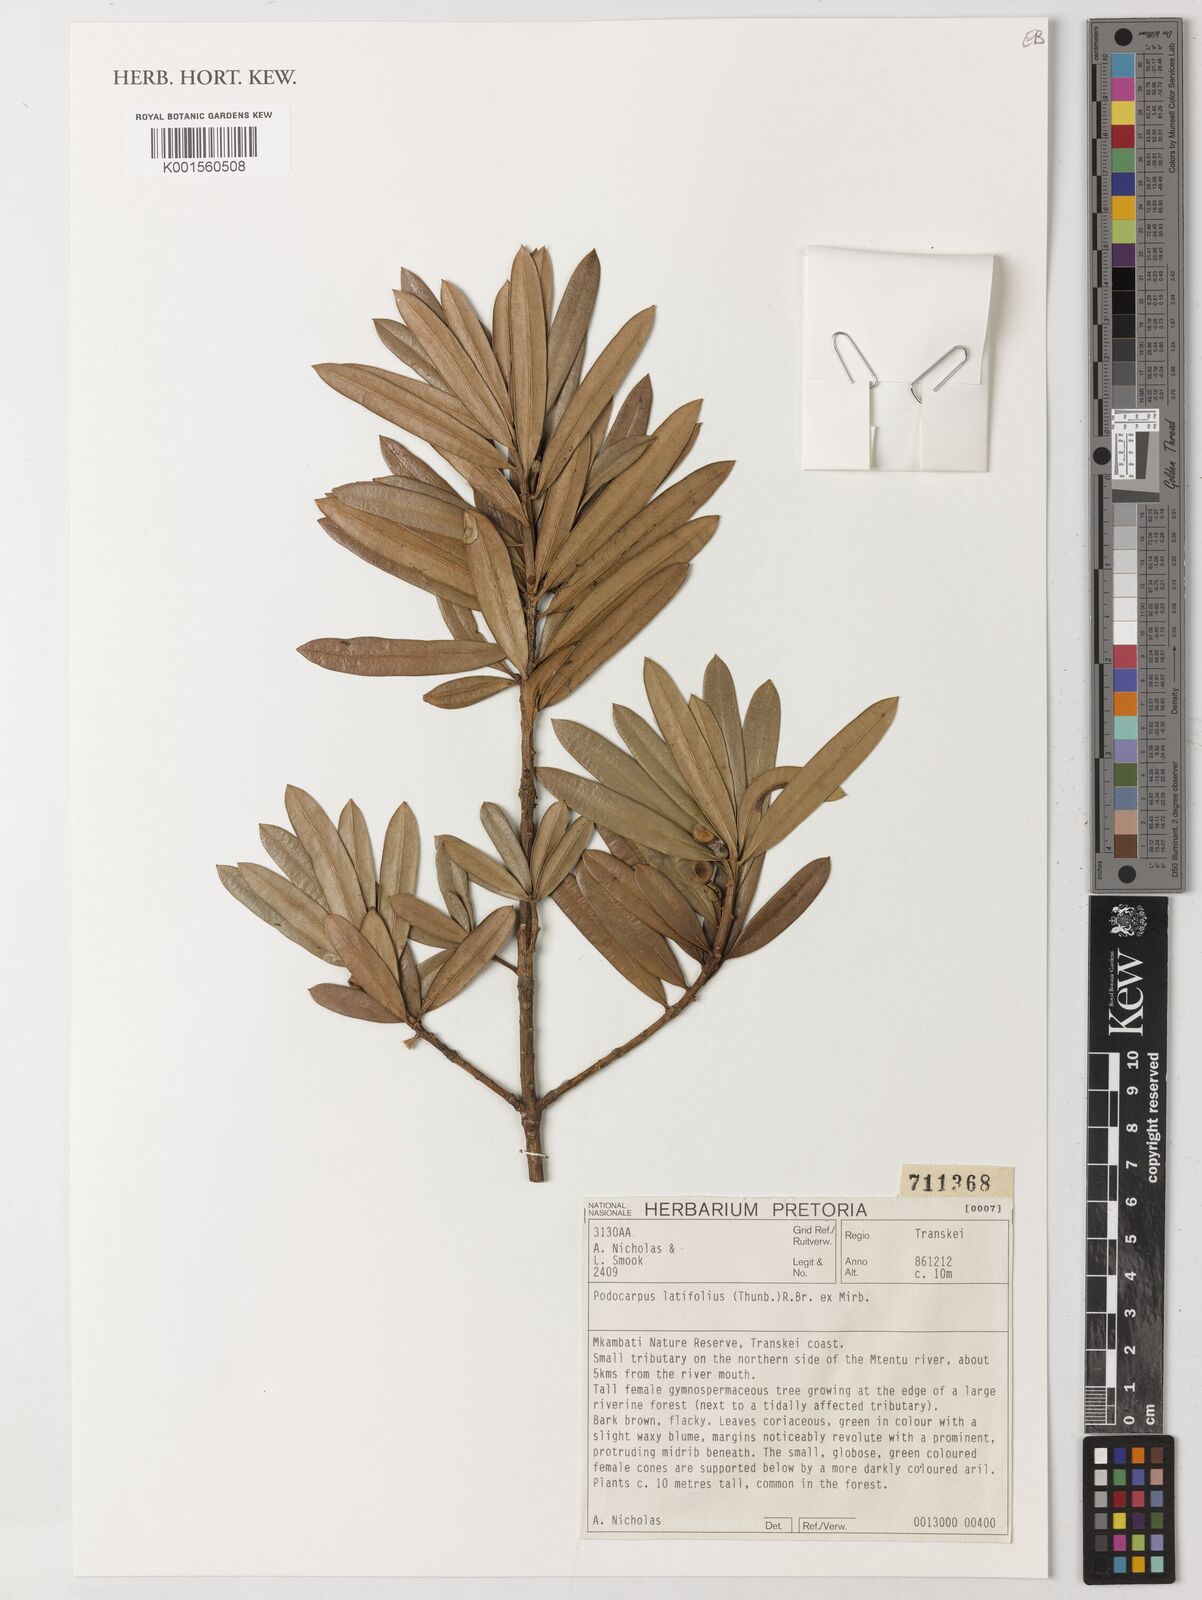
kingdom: Plantae
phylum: Tracheophyta
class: Pinopsida
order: Pinales
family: Podocarpaceae
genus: Podocarpus
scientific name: Podocarpus latifolius
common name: True yellowwood
